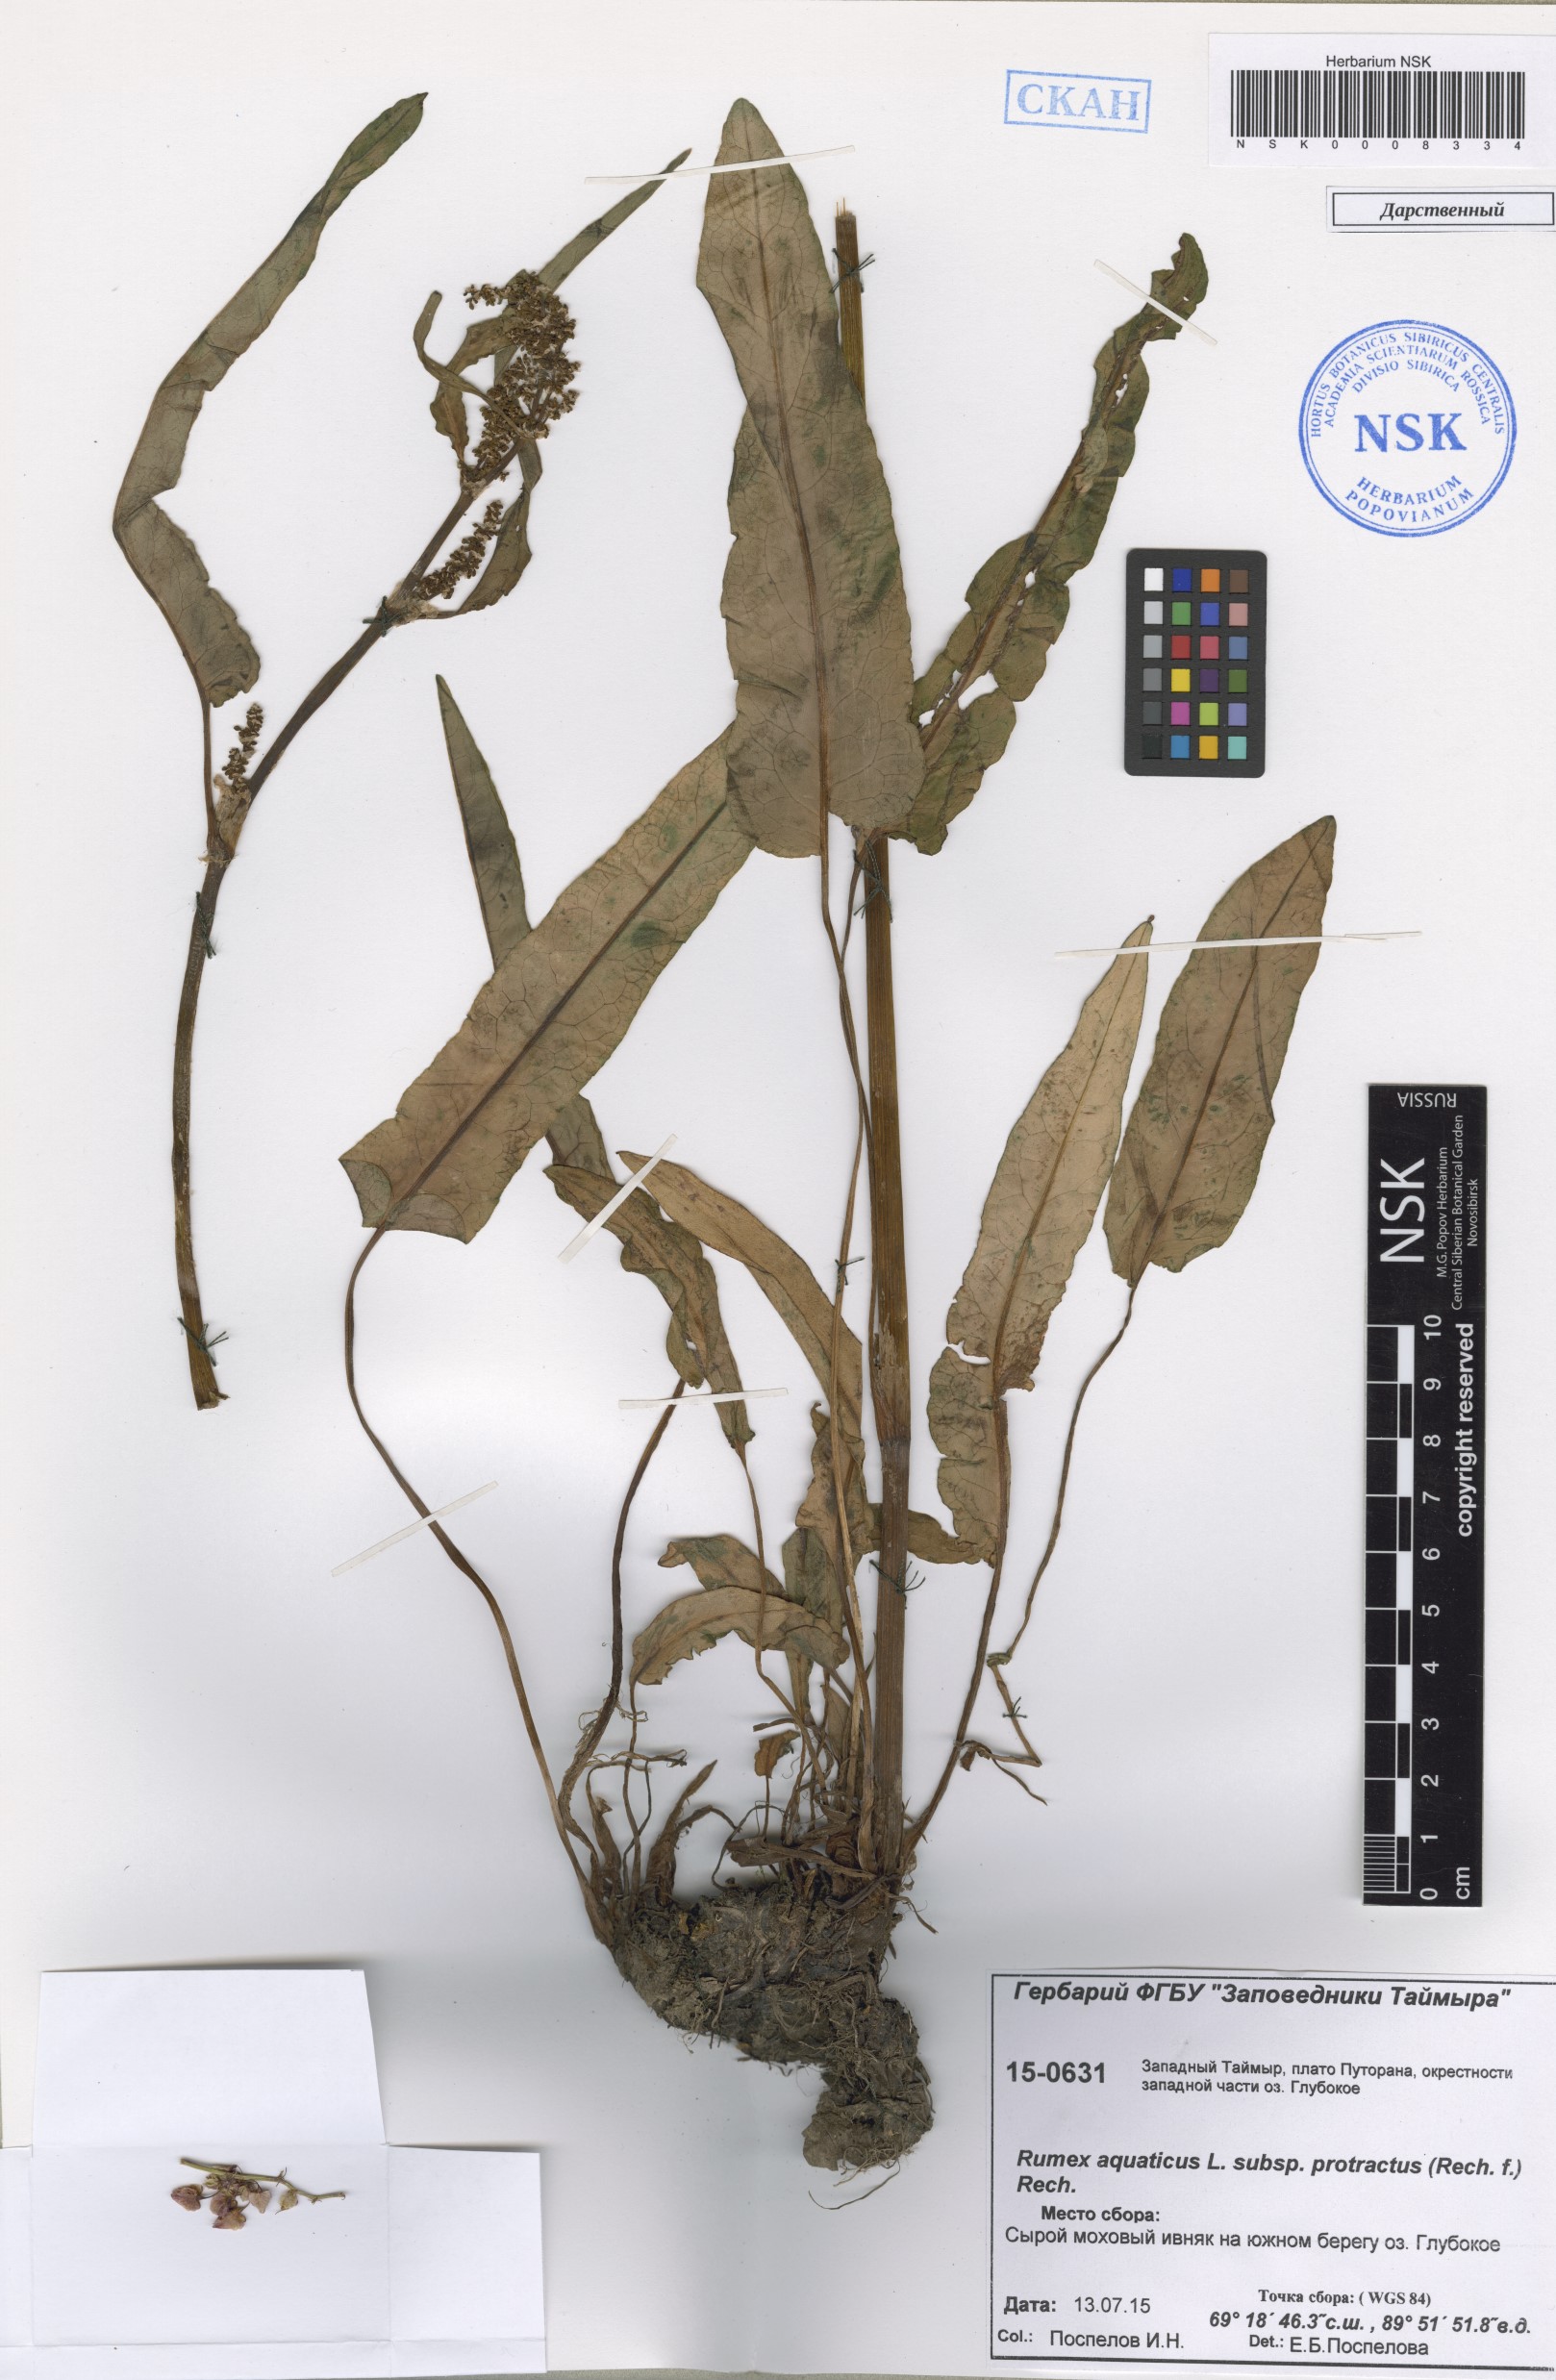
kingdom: Plantae
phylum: Tracheophyta
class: Magnoliopsida
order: Caryophyllales
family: Polygonaceae
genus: Rumex
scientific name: Rumex aquaticus
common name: Scottish dock
